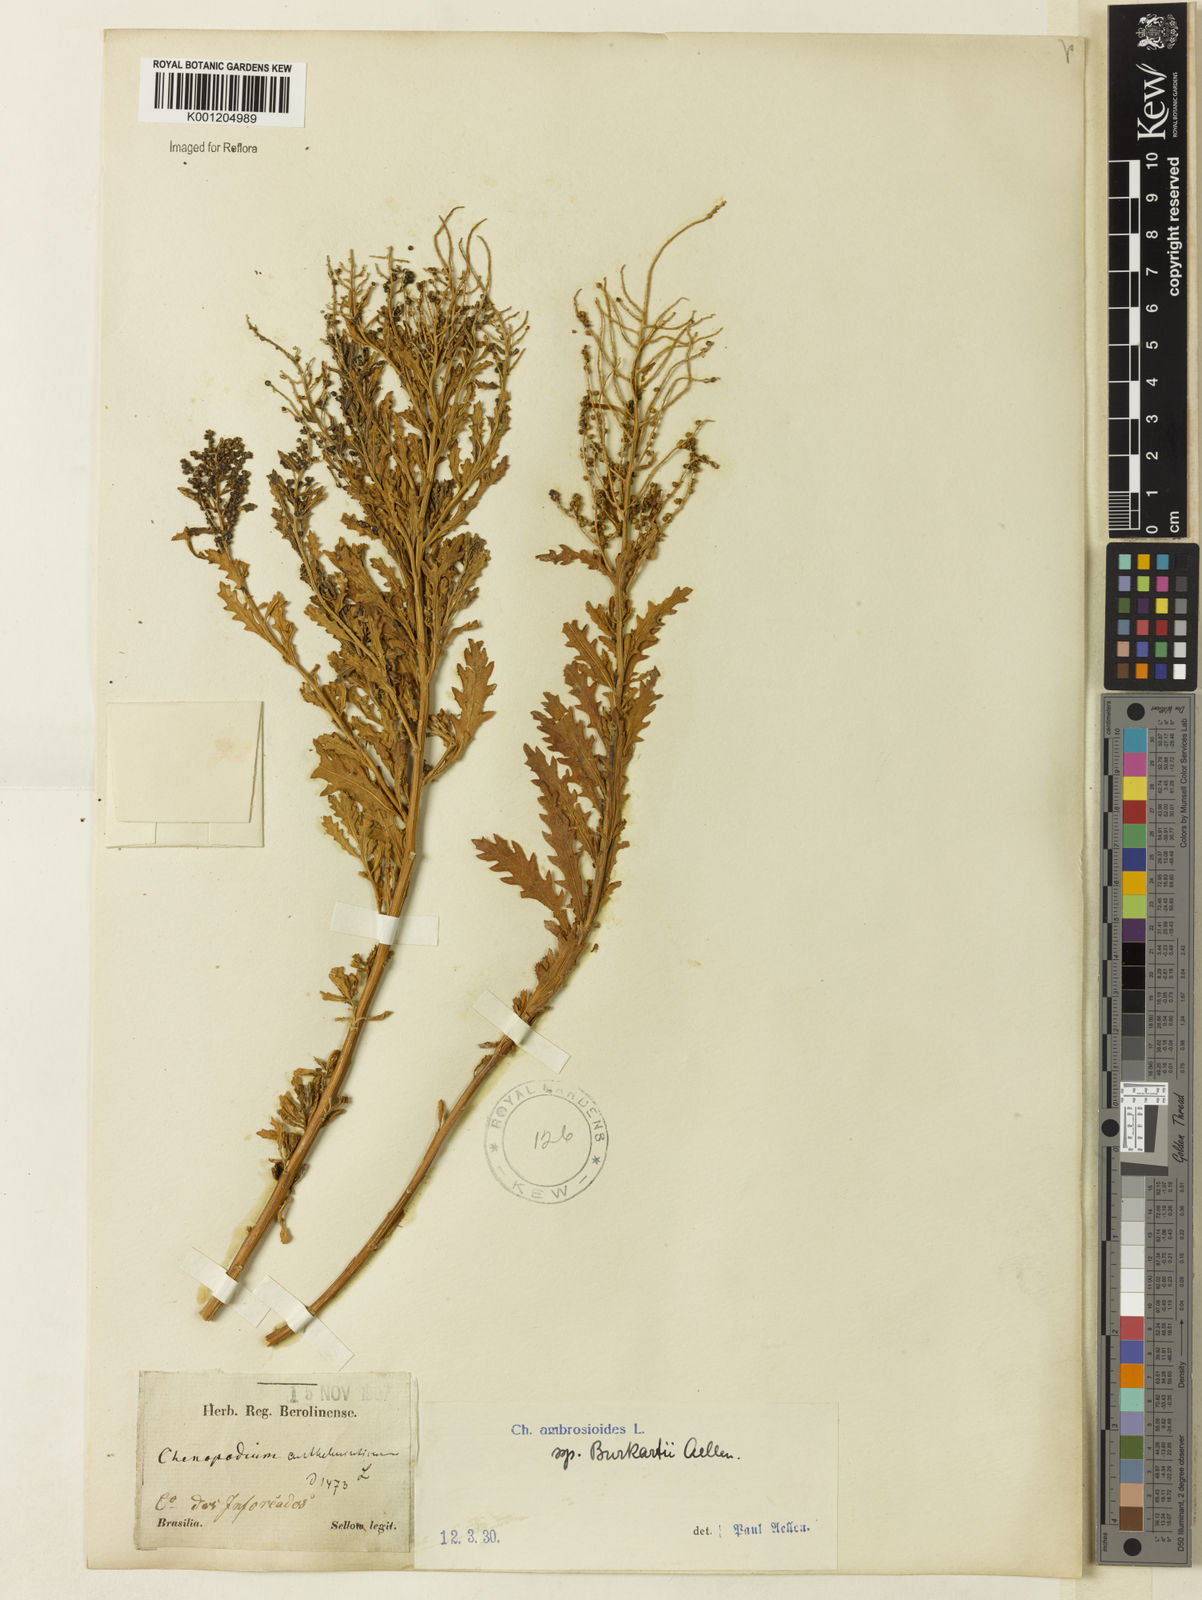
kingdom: Plantae
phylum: Tracheophyta
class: Magnoliopsida
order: Caryophyllales
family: Amaranthaceae
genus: Dysphania
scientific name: Dysphania ambrosioides
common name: Wormseed
